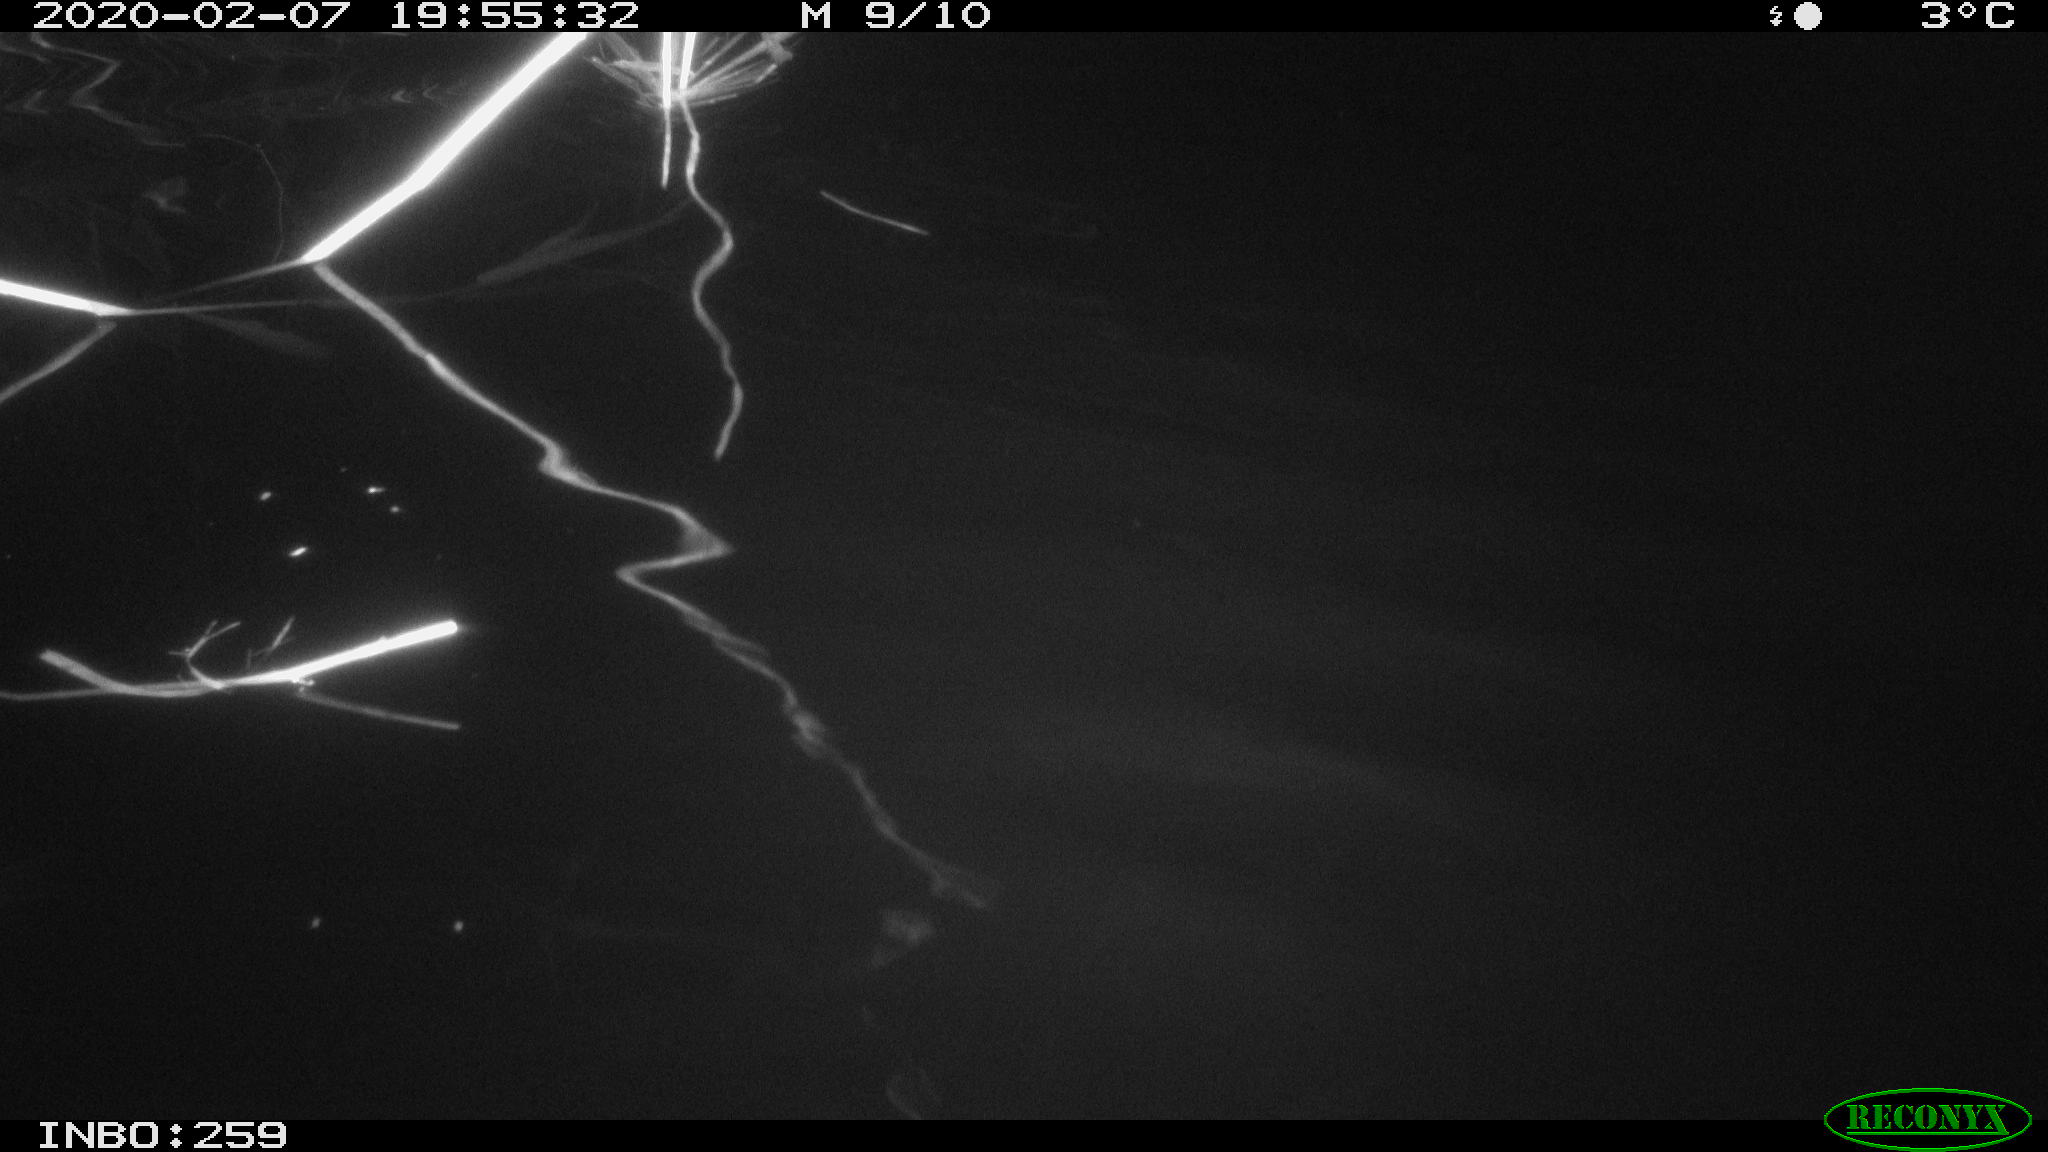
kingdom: Animalia
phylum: Chordata
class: Mammalia
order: Rodentia
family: Cricetidae
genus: Ondatra
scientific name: Ondatra zibethicus
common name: Muskrat
